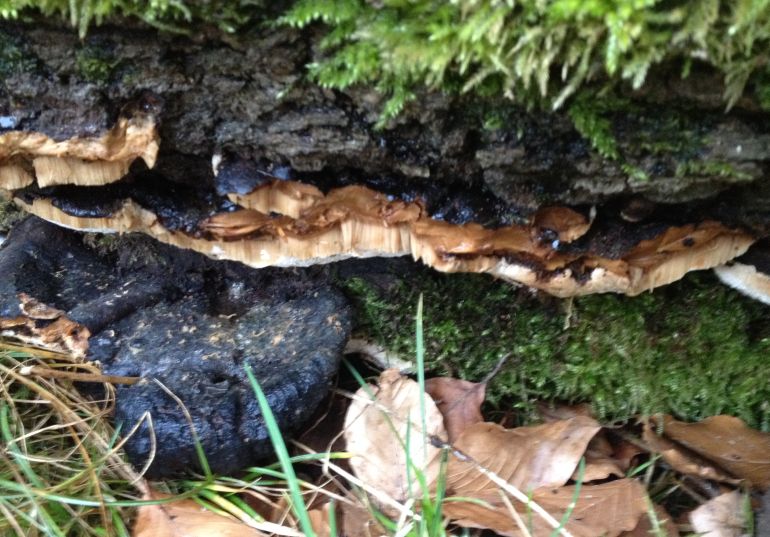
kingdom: Fungi
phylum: Basidiomycota
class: Agaricomycetes
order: Polyporales
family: Ischnodermataceae
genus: Ischnoderma
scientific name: Ischnoderma resinosum
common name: løv-tjæreporesvamp
